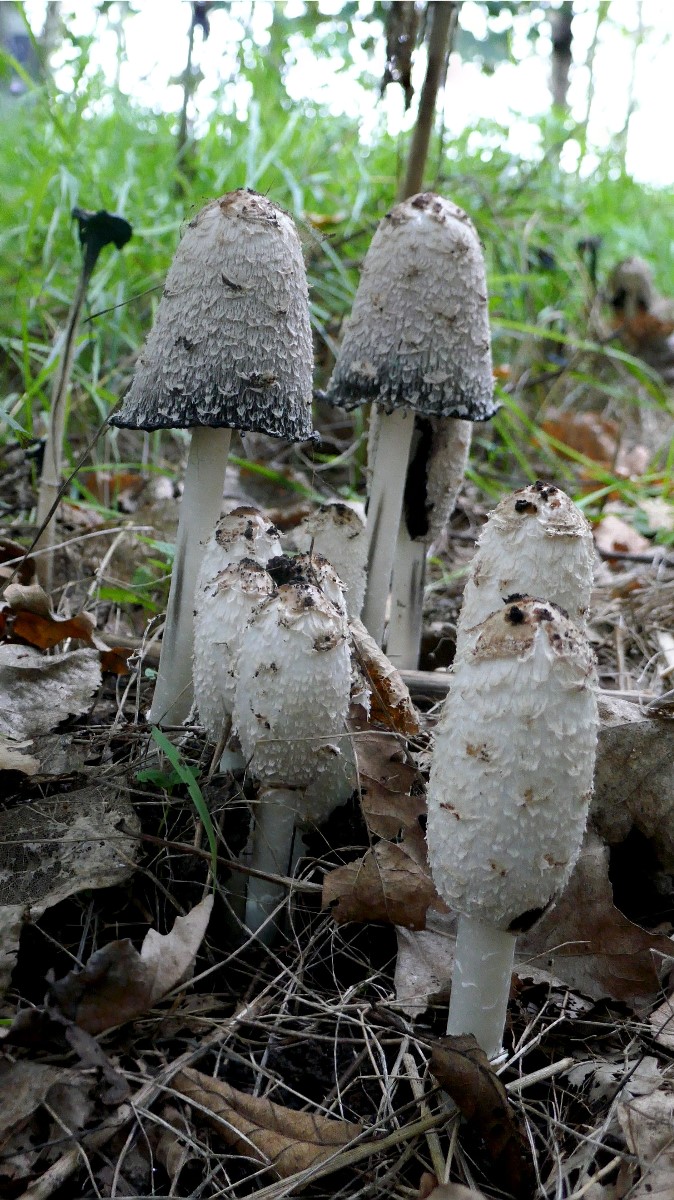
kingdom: Fungi
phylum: Basidiomycota
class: Agaricomycetes
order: Agaricales
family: Agaricaceae
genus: Coprinus
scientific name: Coprinus comatus
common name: stor parykhat
